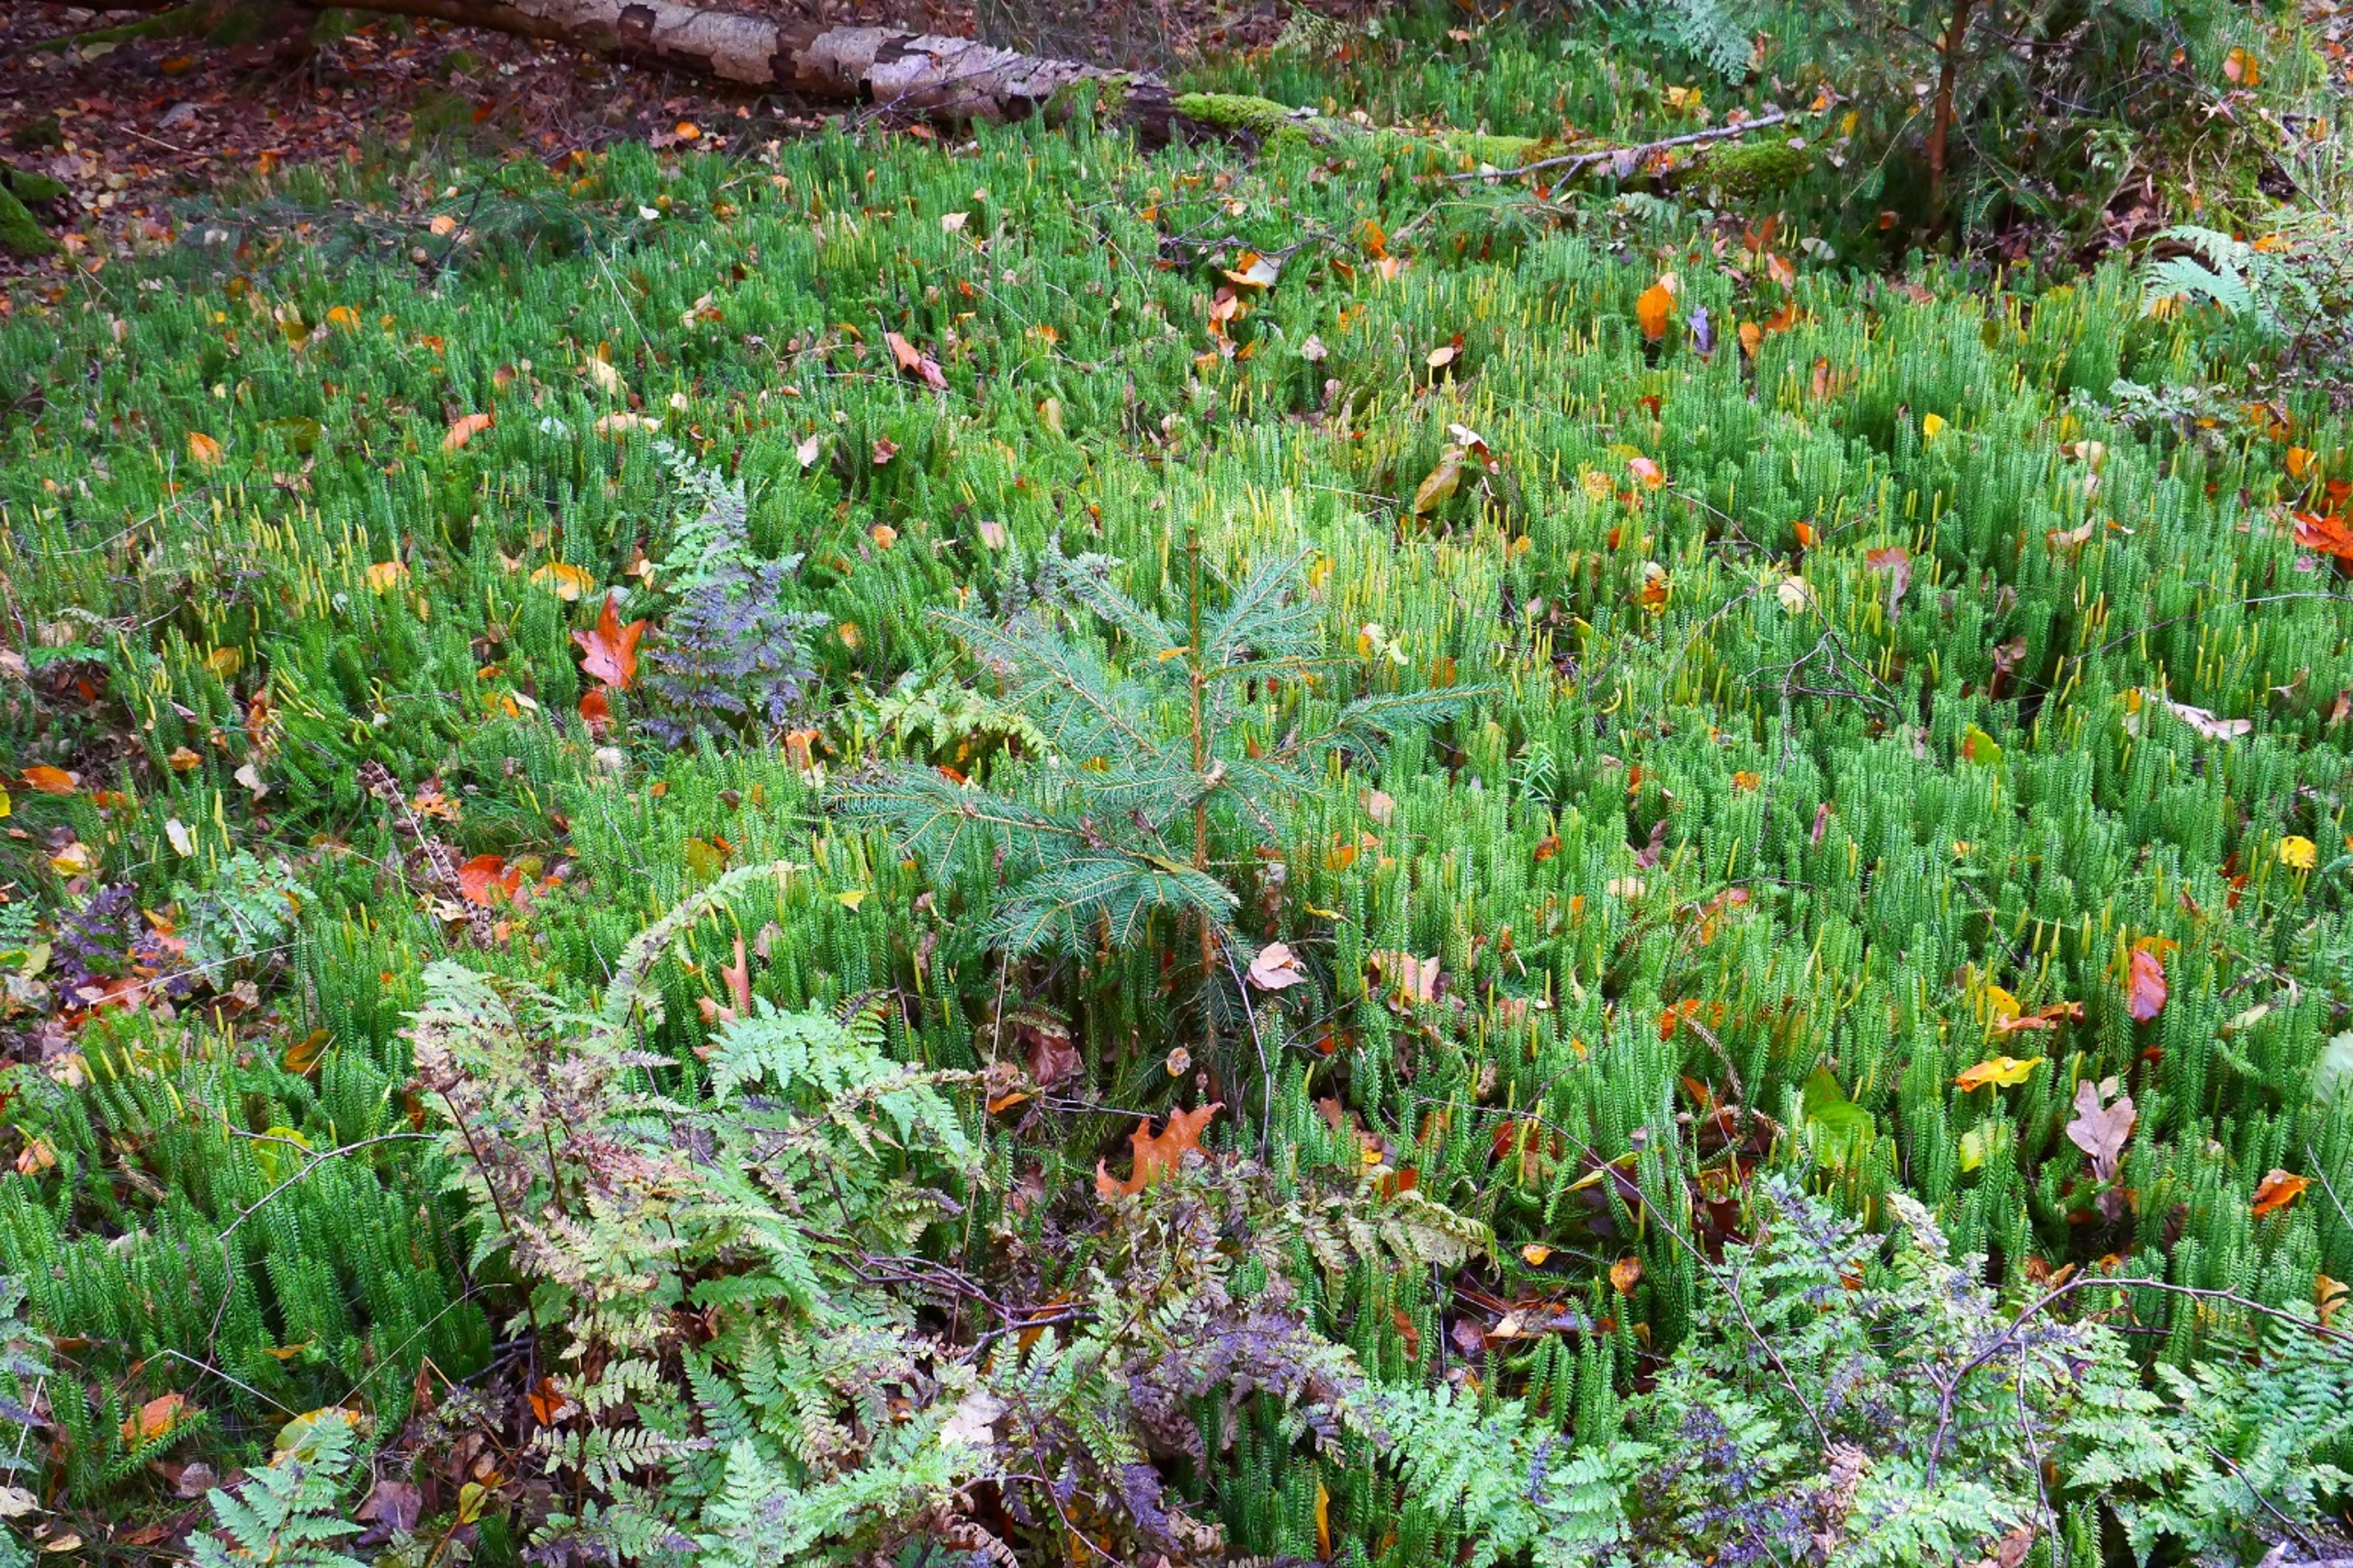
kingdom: Plantae
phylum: Tracheophyta
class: Lycopodiopsida
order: Lycopodiales
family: Lycopodiaceae
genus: Spinulum
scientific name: Spinulum annotinum
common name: Femradet ulvefod
